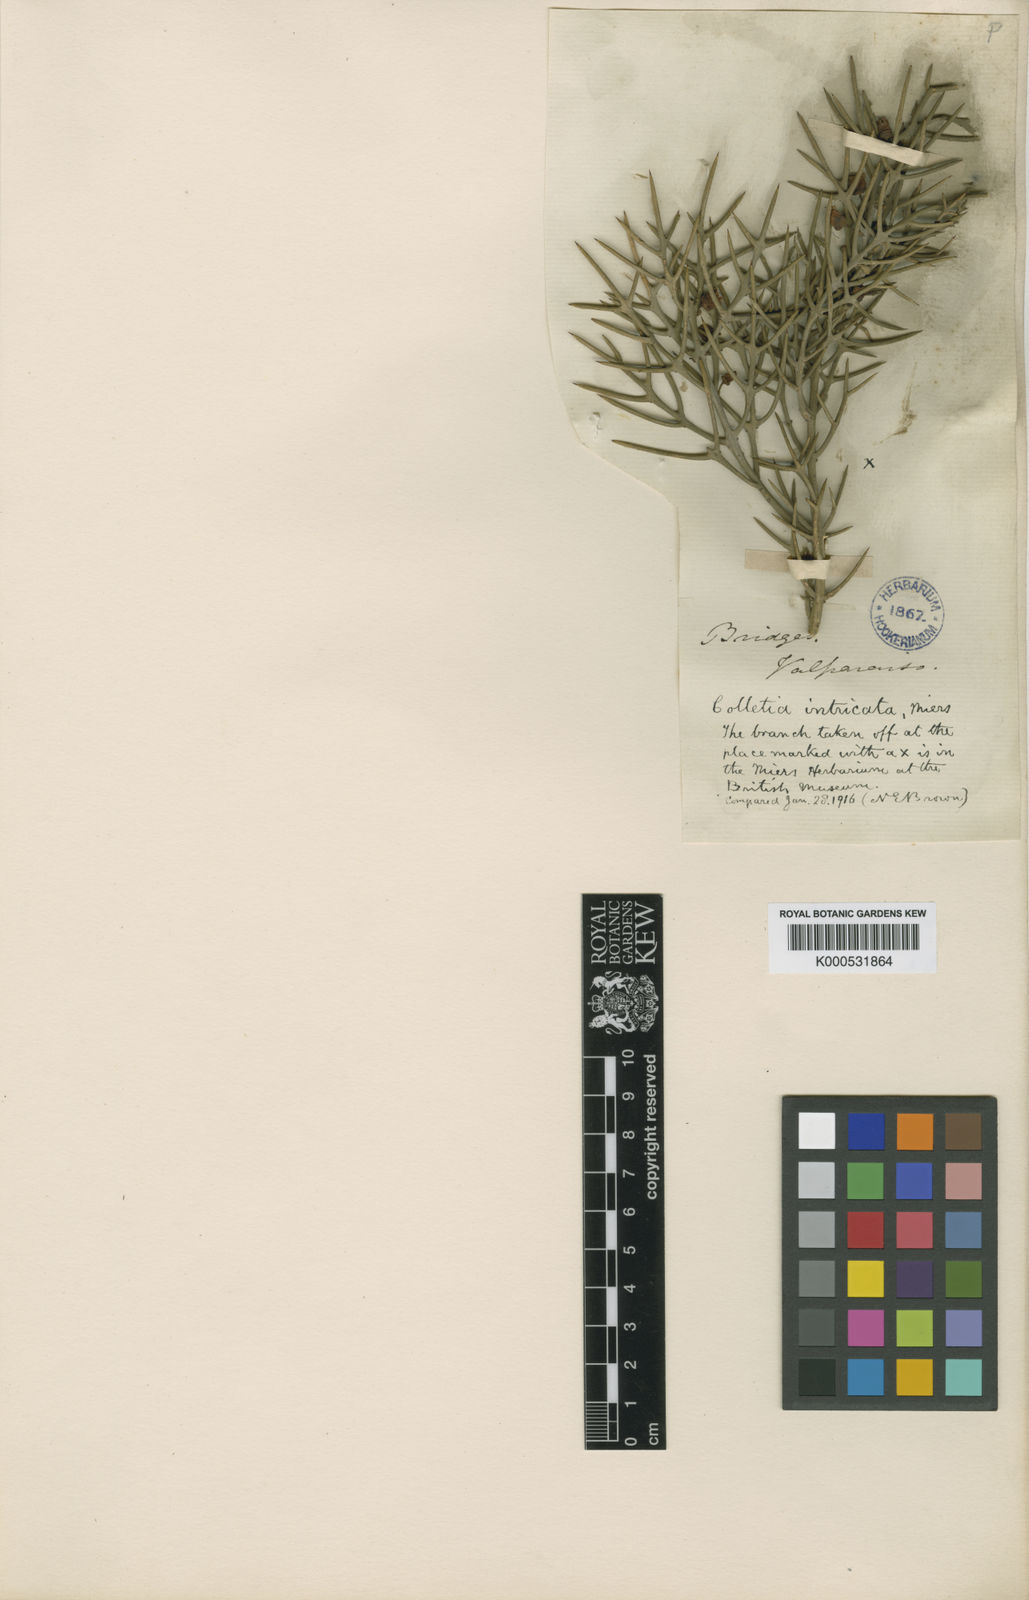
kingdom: Plantae
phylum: Tracheophyta
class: Magnoliopsida
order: Rosales
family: Rhamnaceae
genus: Colletia
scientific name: Colletia spinosissima
